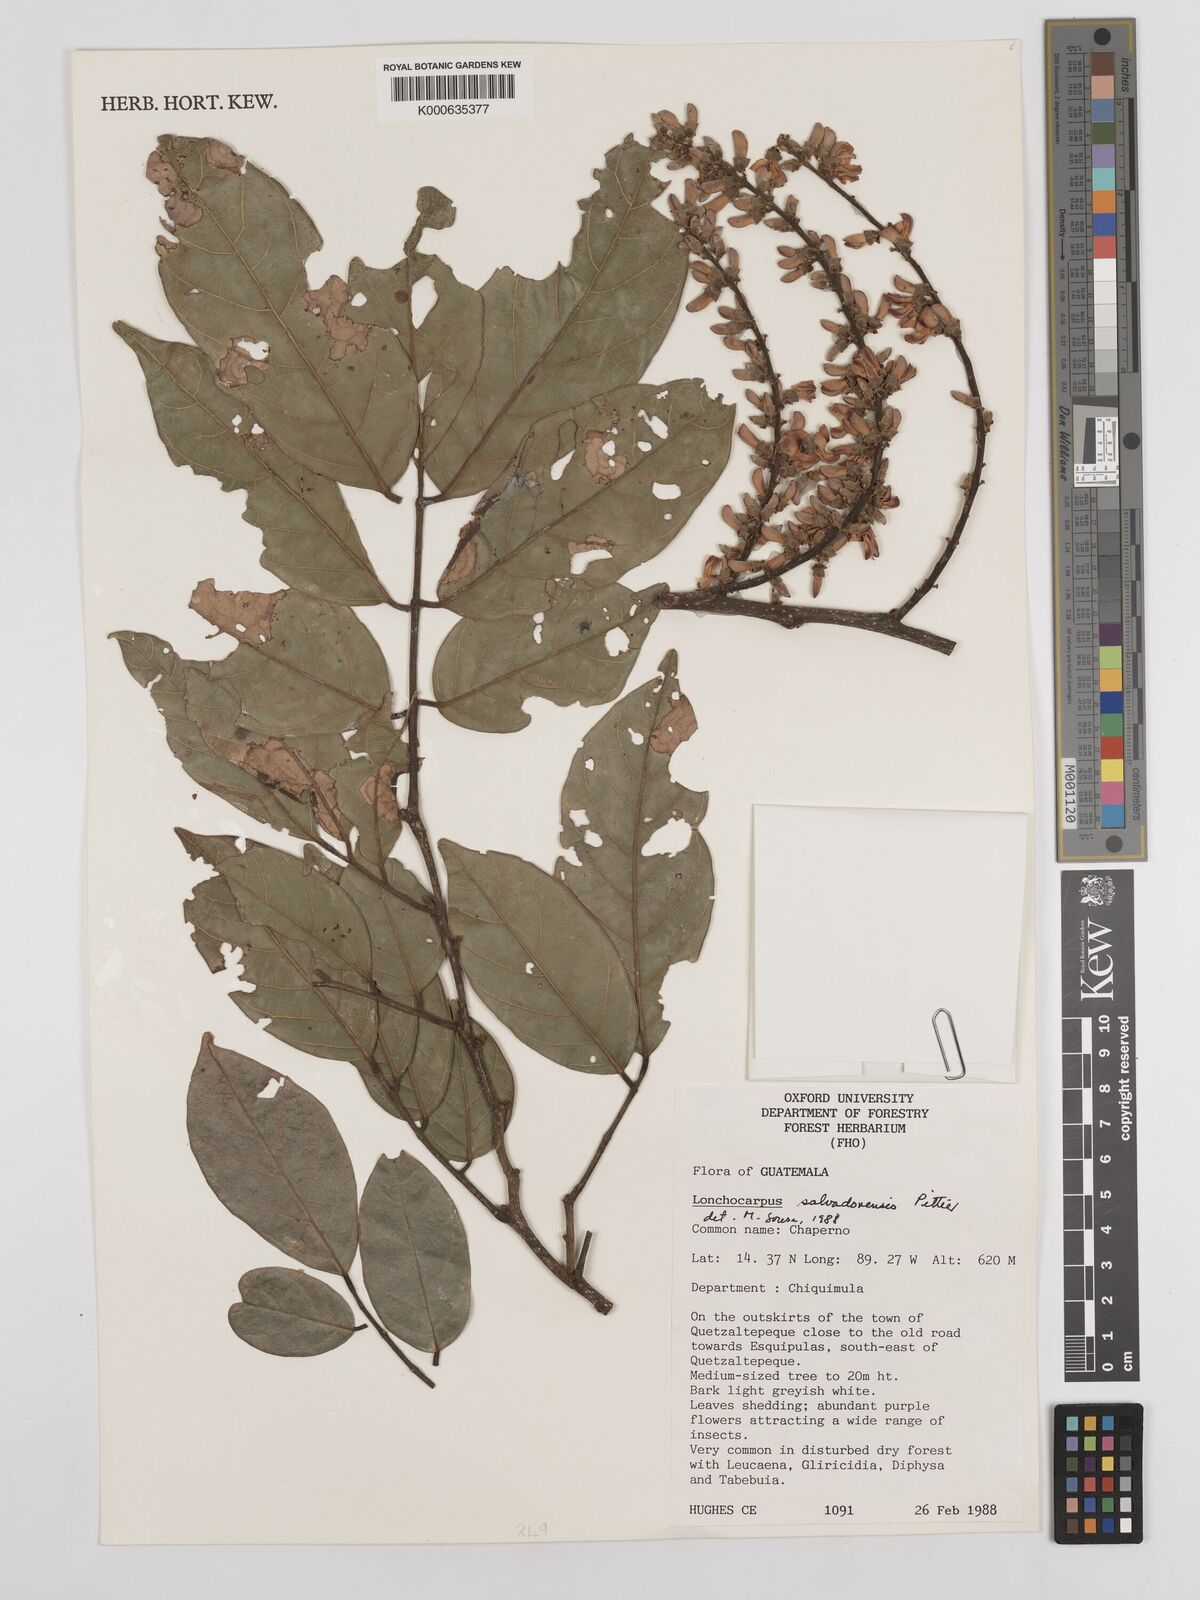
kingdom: Plantae
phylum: Tracheophyta
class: Magnoliopsida
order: Fabales
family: Fabaceae
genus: Lonchocarpus
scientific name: Lonchocarpus salvadorensis
